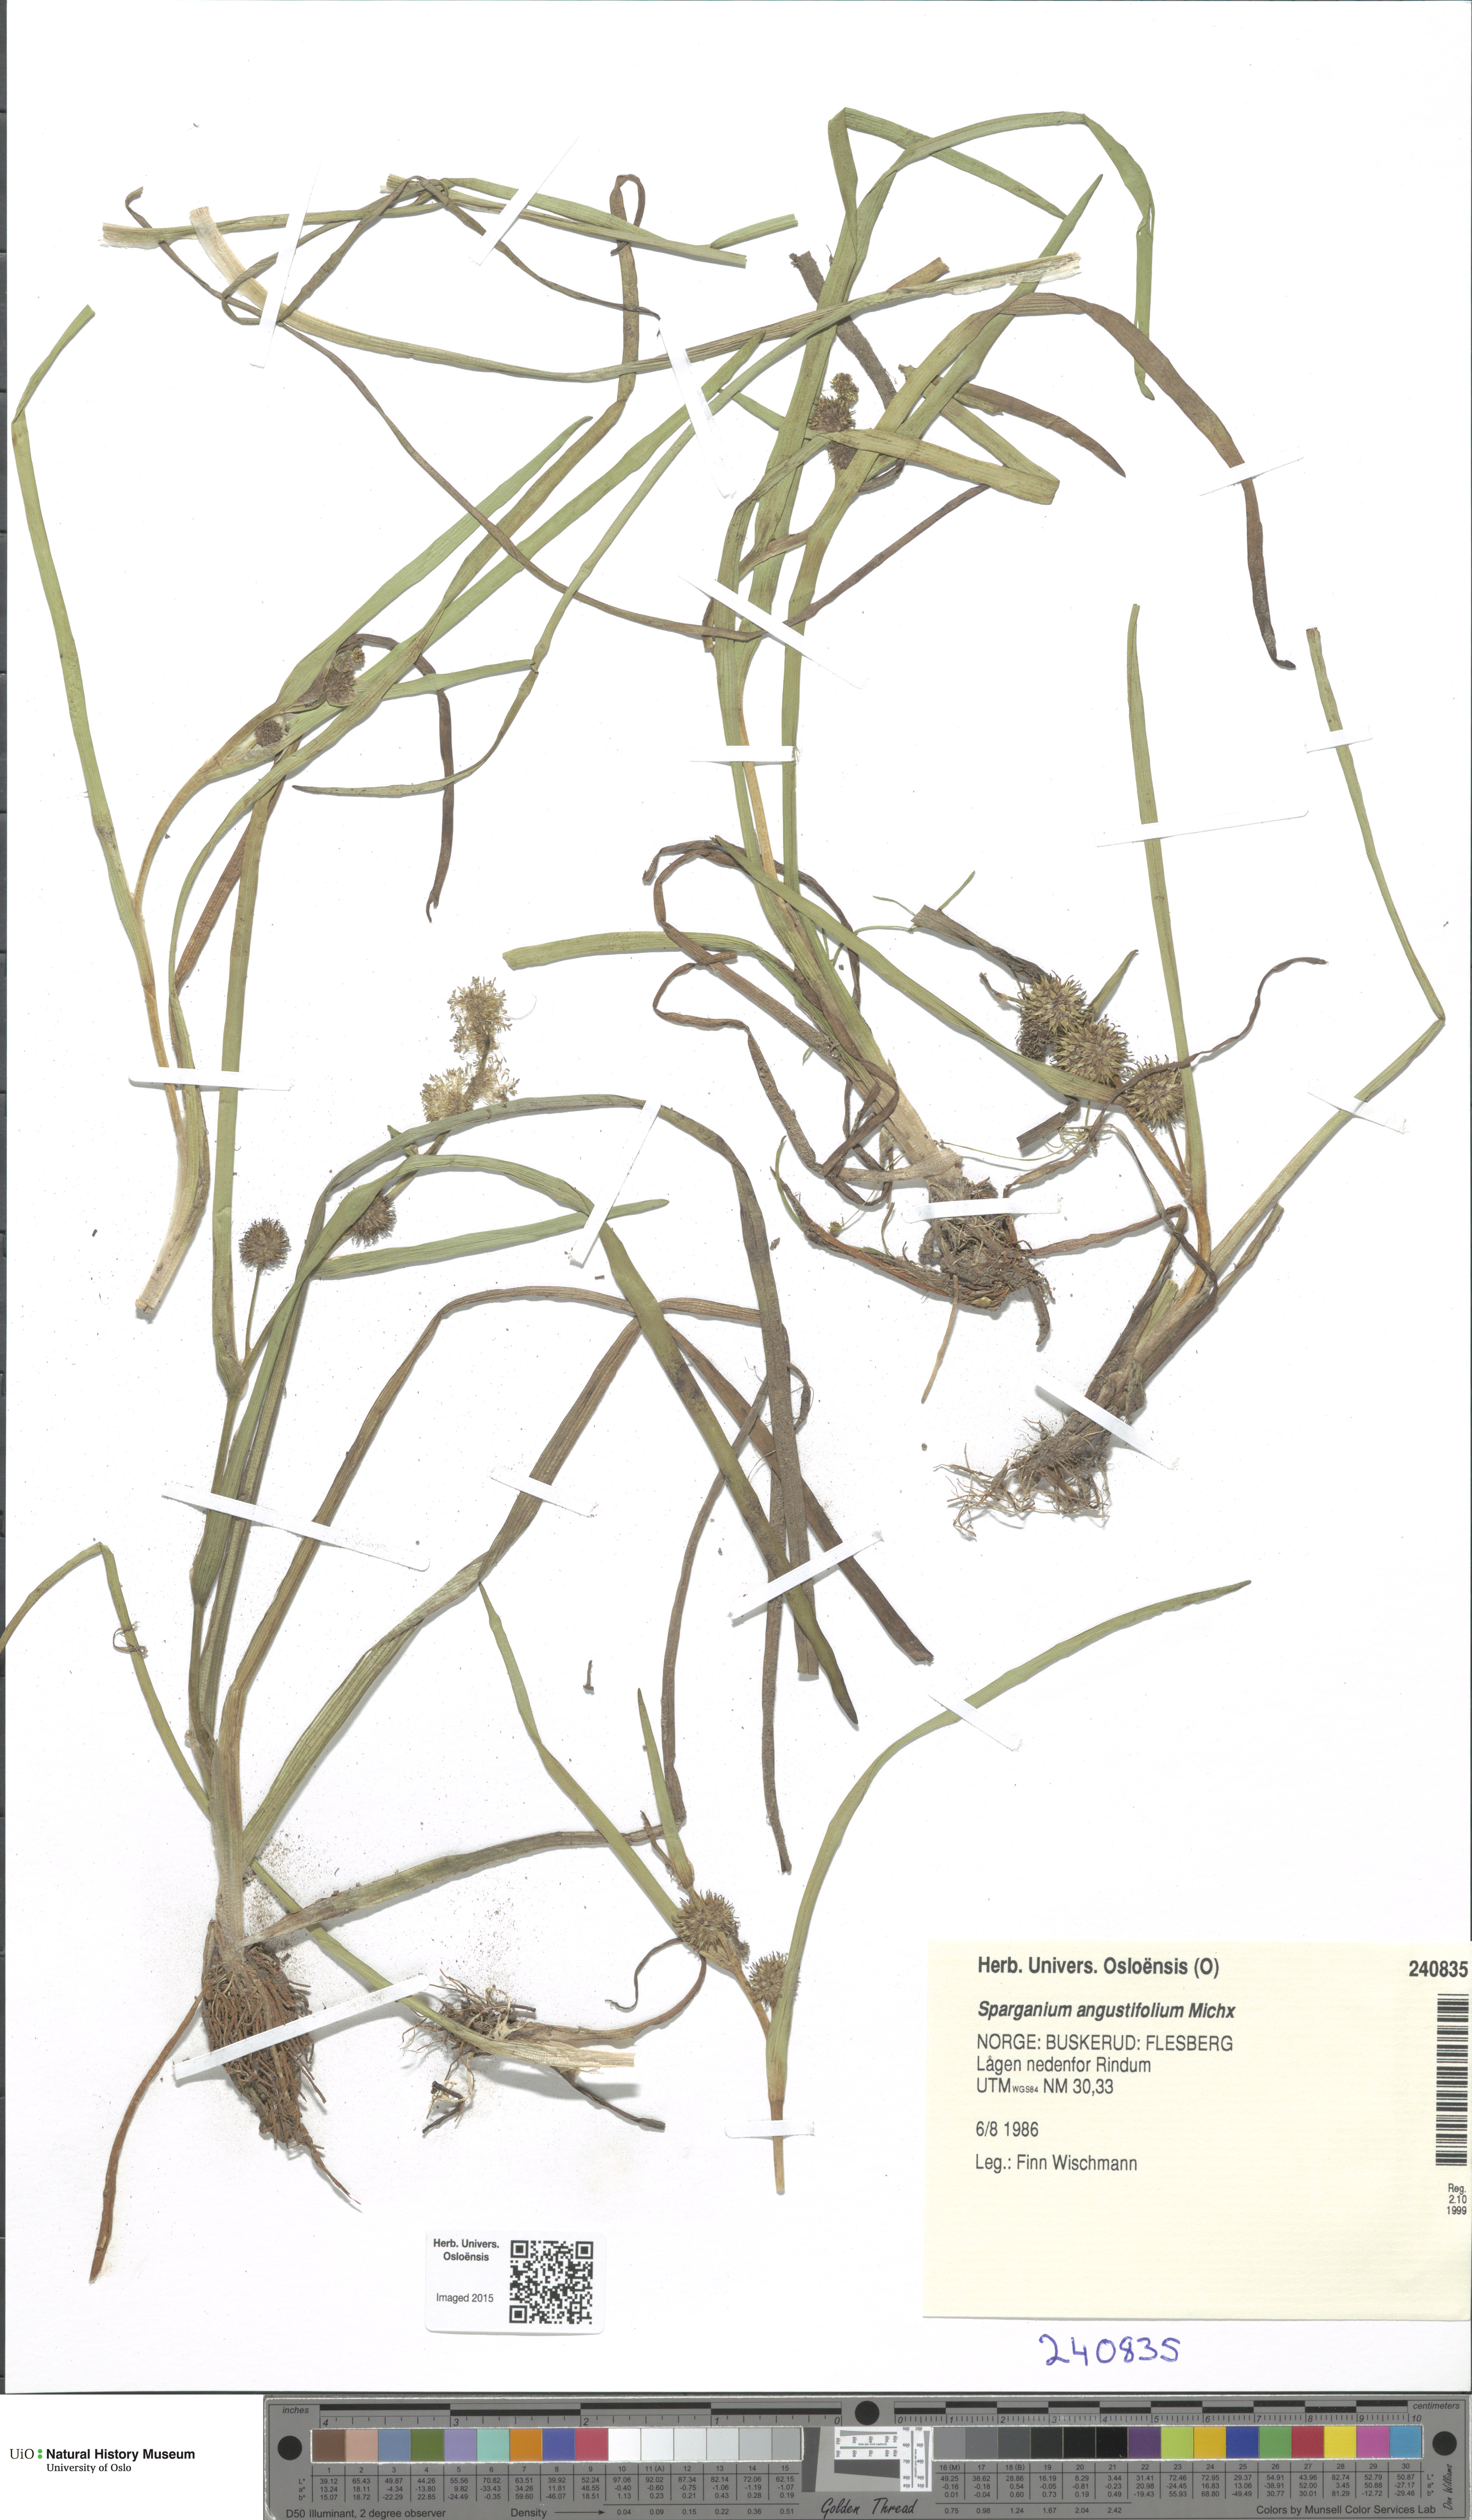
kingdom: Plantae
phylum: Tracheophyta
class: Liliopsida
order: Poales
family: Typhaceae
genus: Sparganium
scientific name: Sparganium angustifolium
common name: Floating bur-reed
